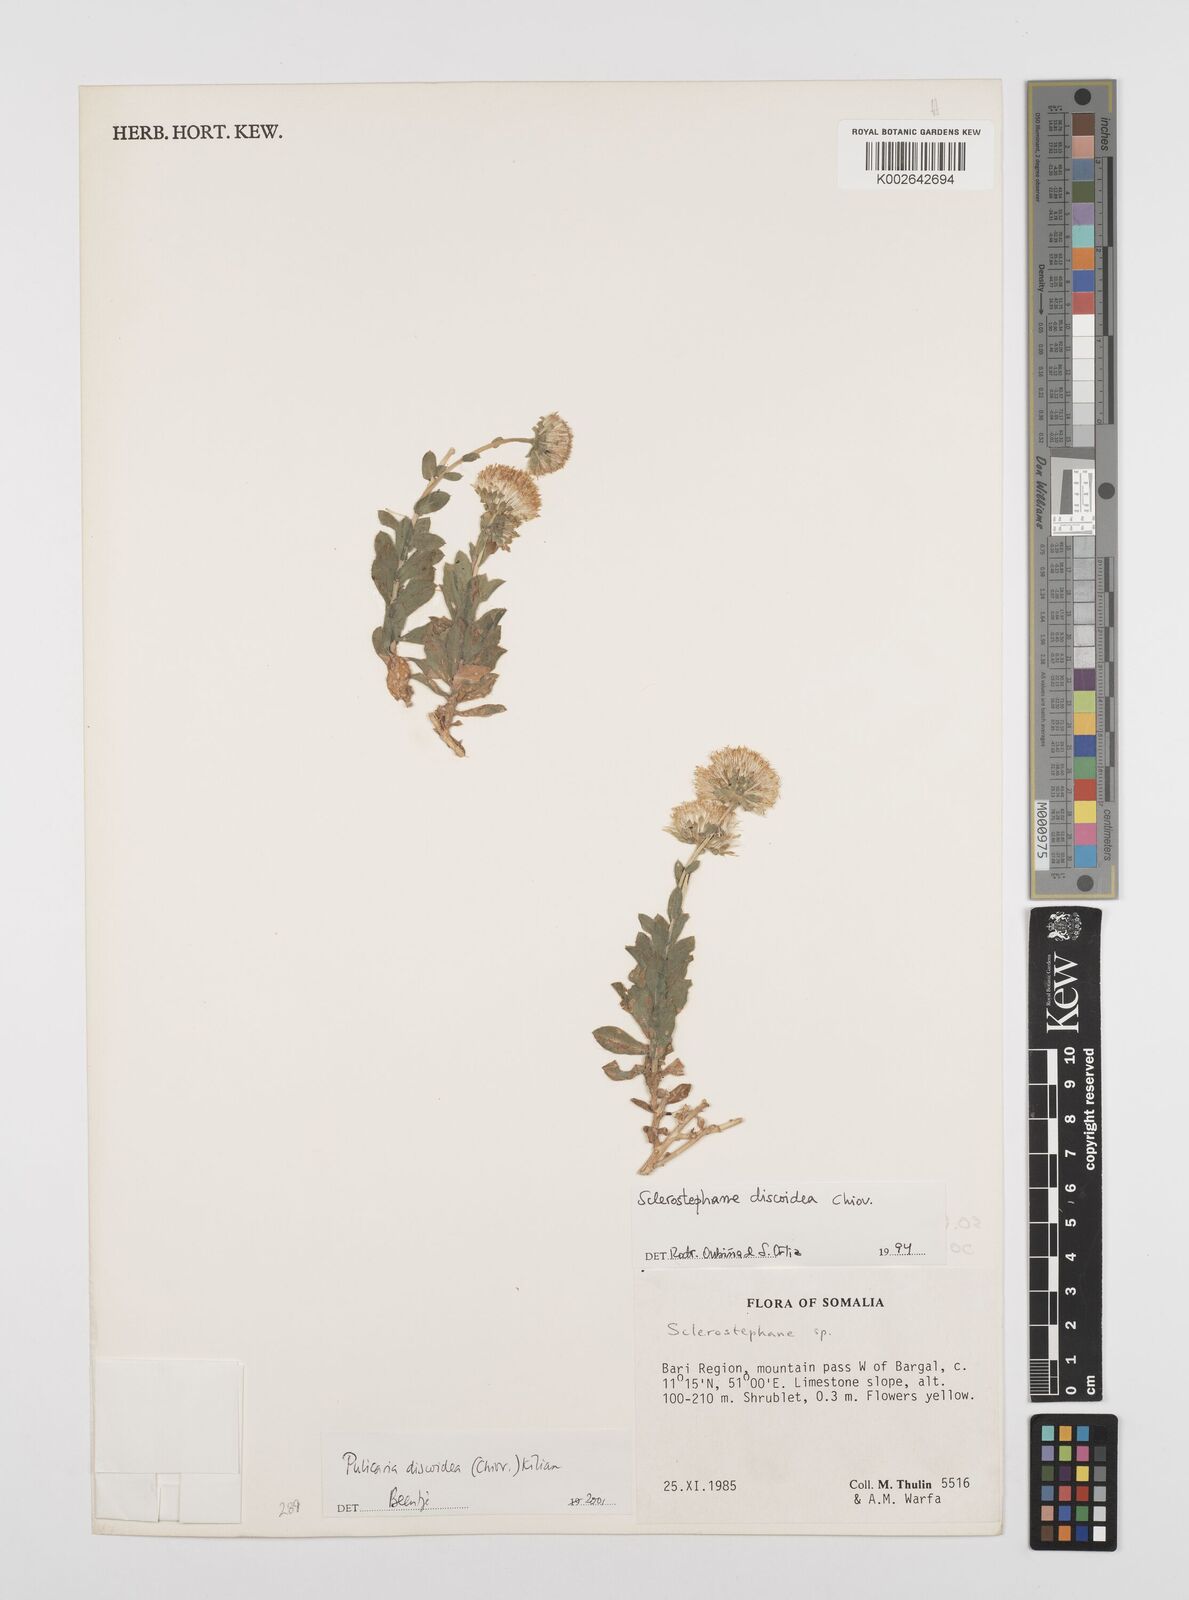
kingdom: Plantae
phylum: Tracheophyta
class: Magnoliopsida
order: Asterales
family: Asteraceae
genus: Pulicaria
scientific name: Pulicaria discoidea
